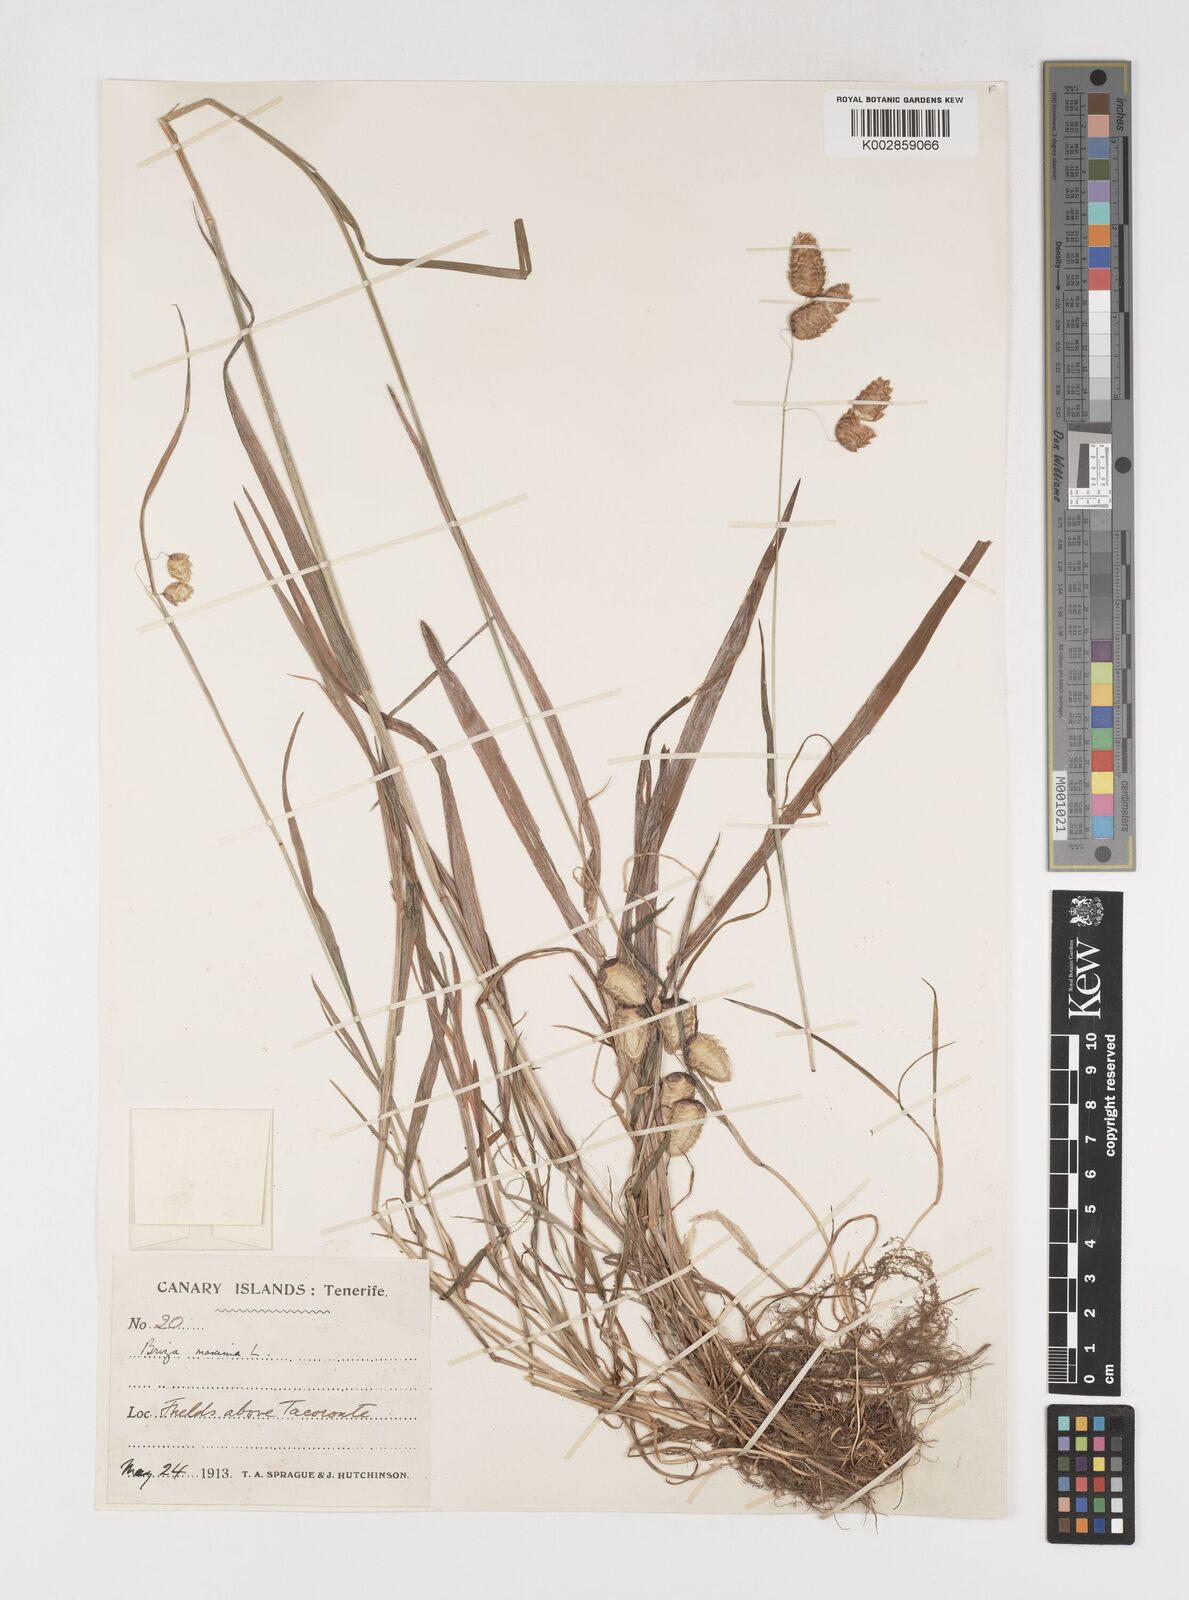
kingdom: Plantae
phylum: Tracheophyta
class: Liliopsida
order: Poales
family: Poaceae
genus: Briza
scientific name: Briza maxima
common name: Big quakinggrass
